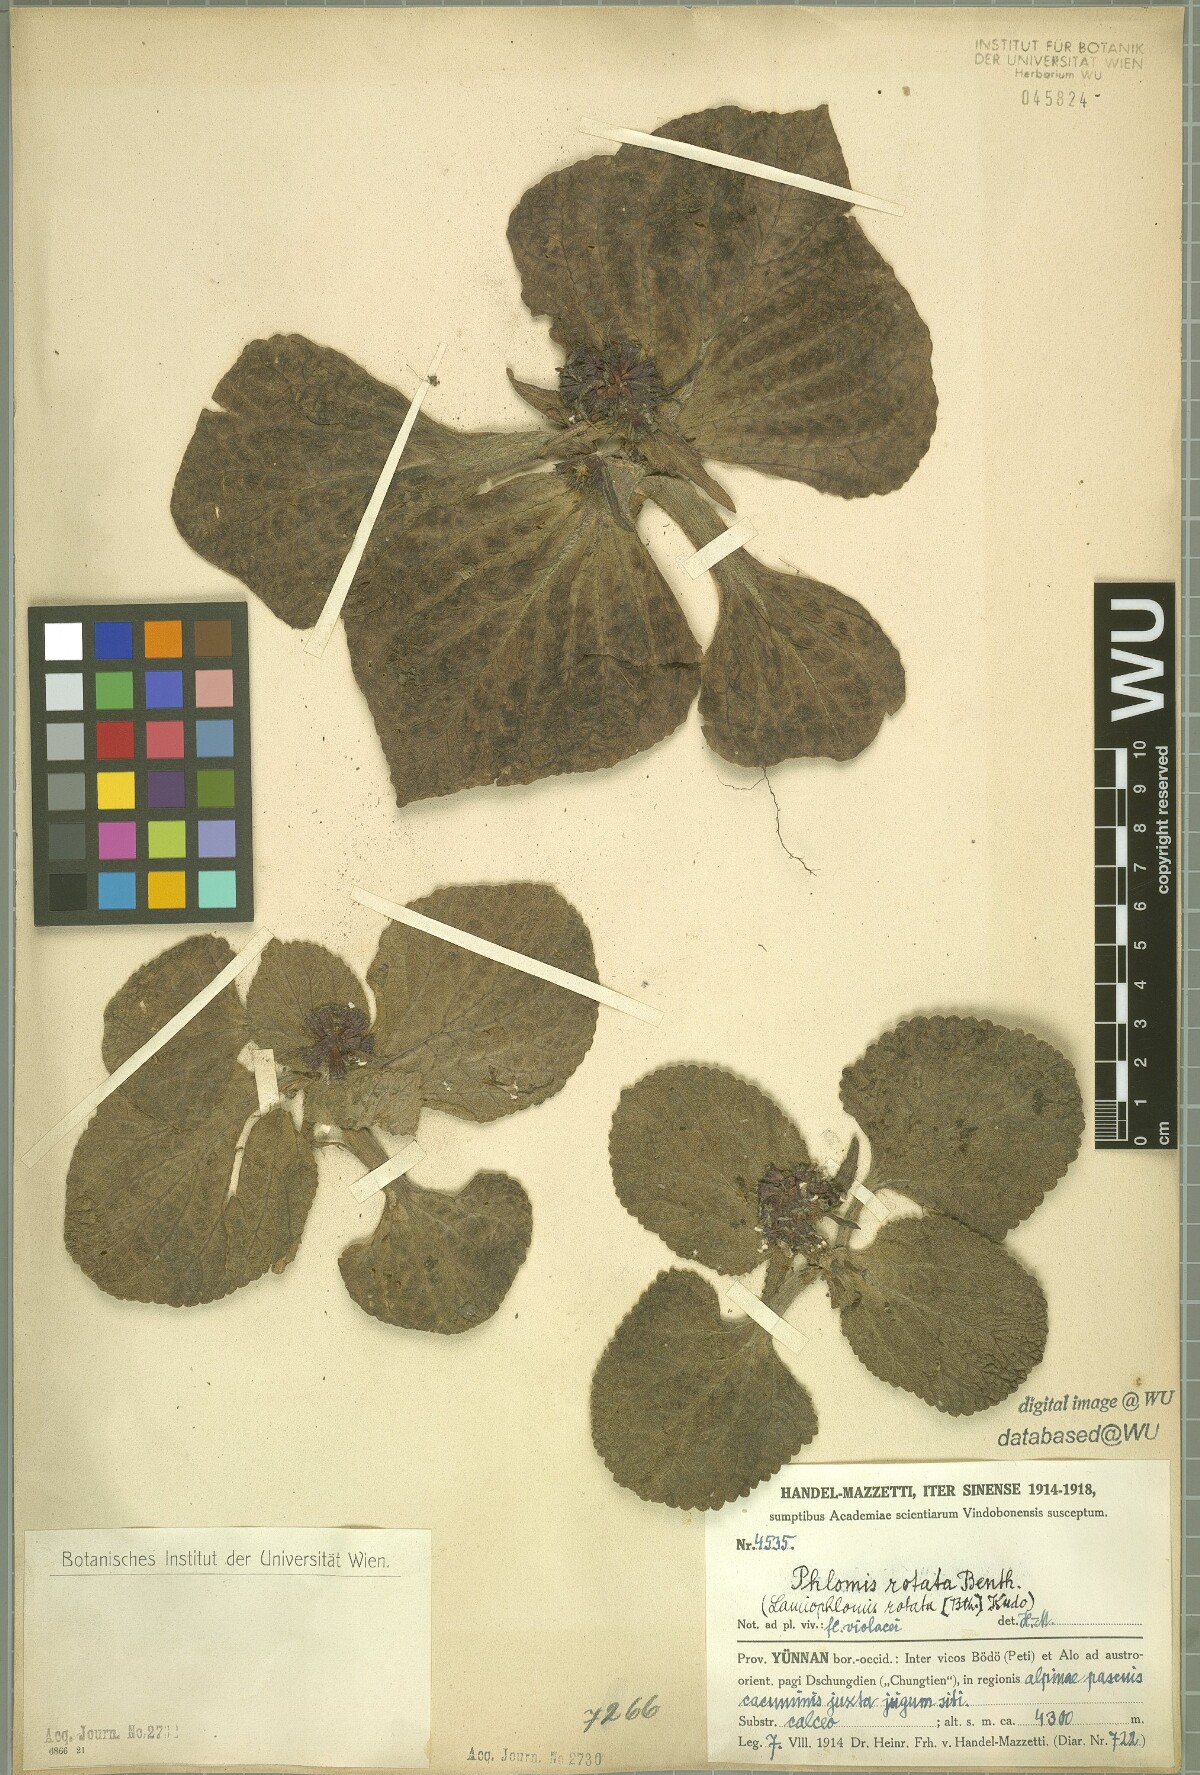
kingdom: Plantae
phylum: Tracheophyta
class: Magnoliopsida
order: Lamiales
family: Lamiaceae
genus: Phlomoides
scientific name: Phlomoides rotata
